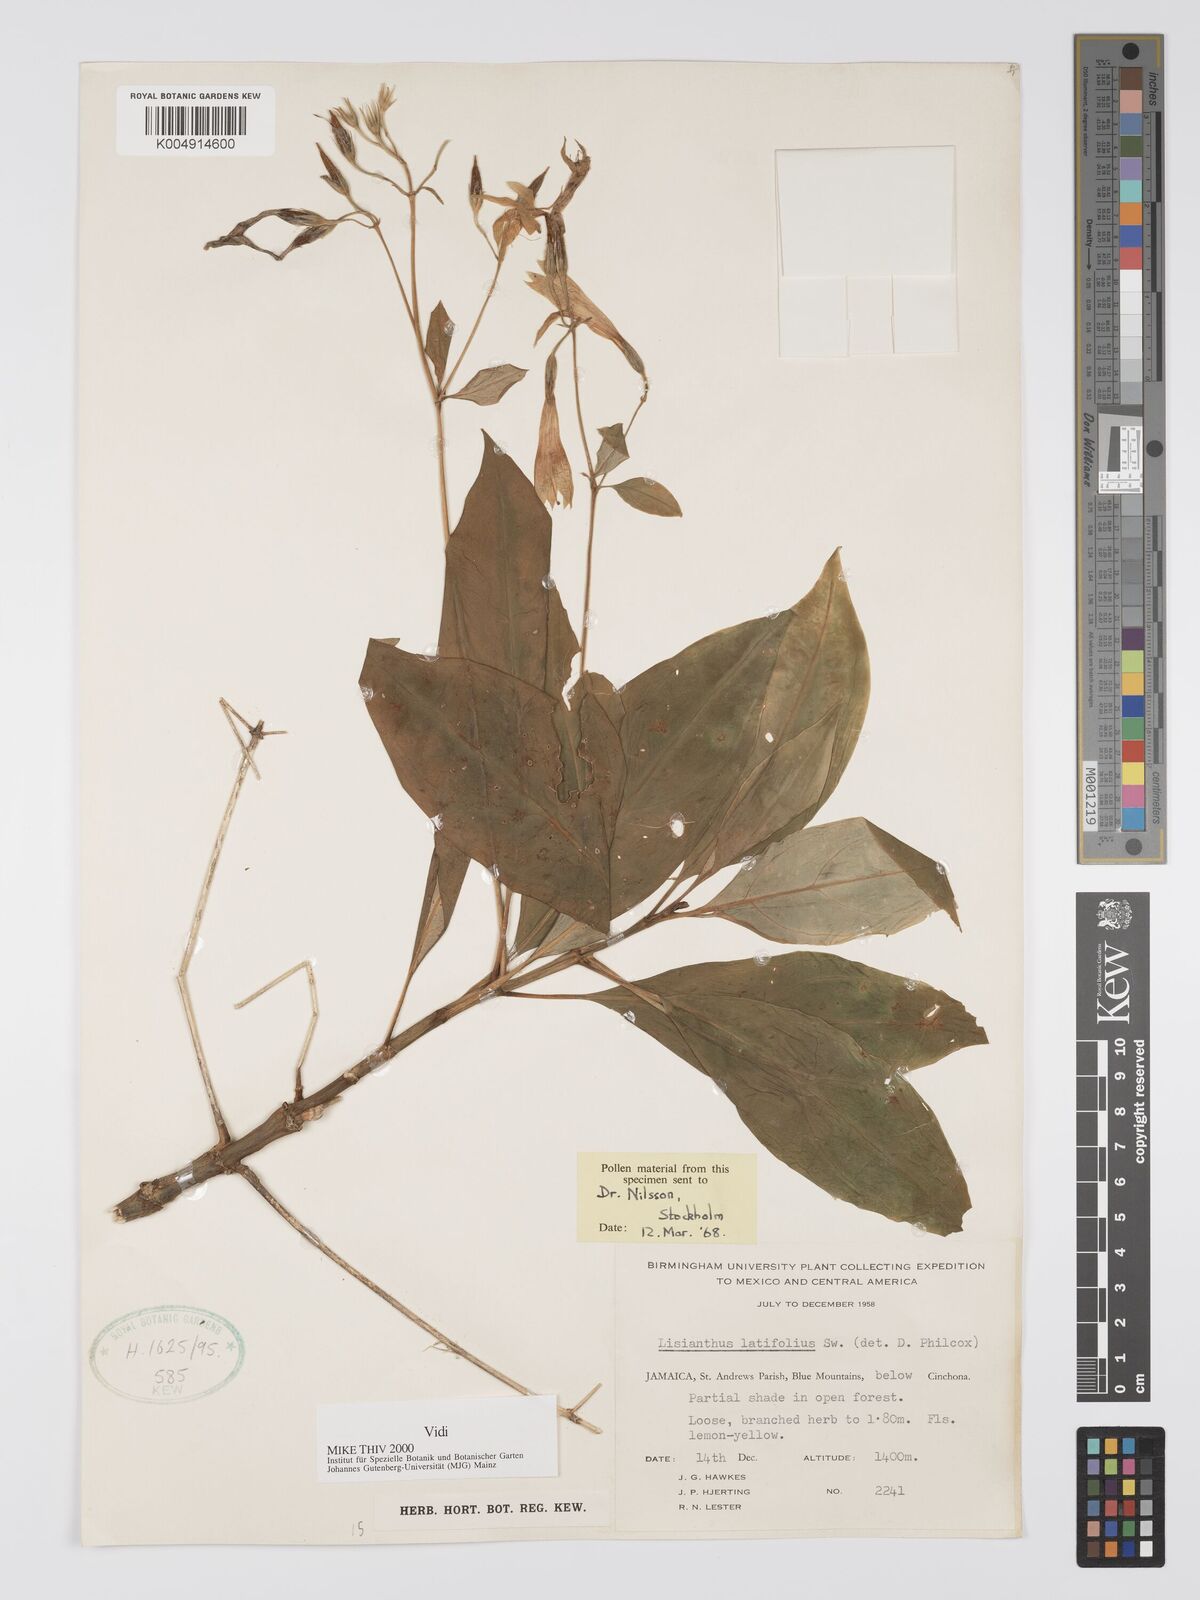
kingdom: Plantae
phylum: Tracheophyta
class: Magnoliopsida
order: Gentianales
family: Gentianaceae
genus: Lisianthus
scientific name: Lisianthus latifolius
